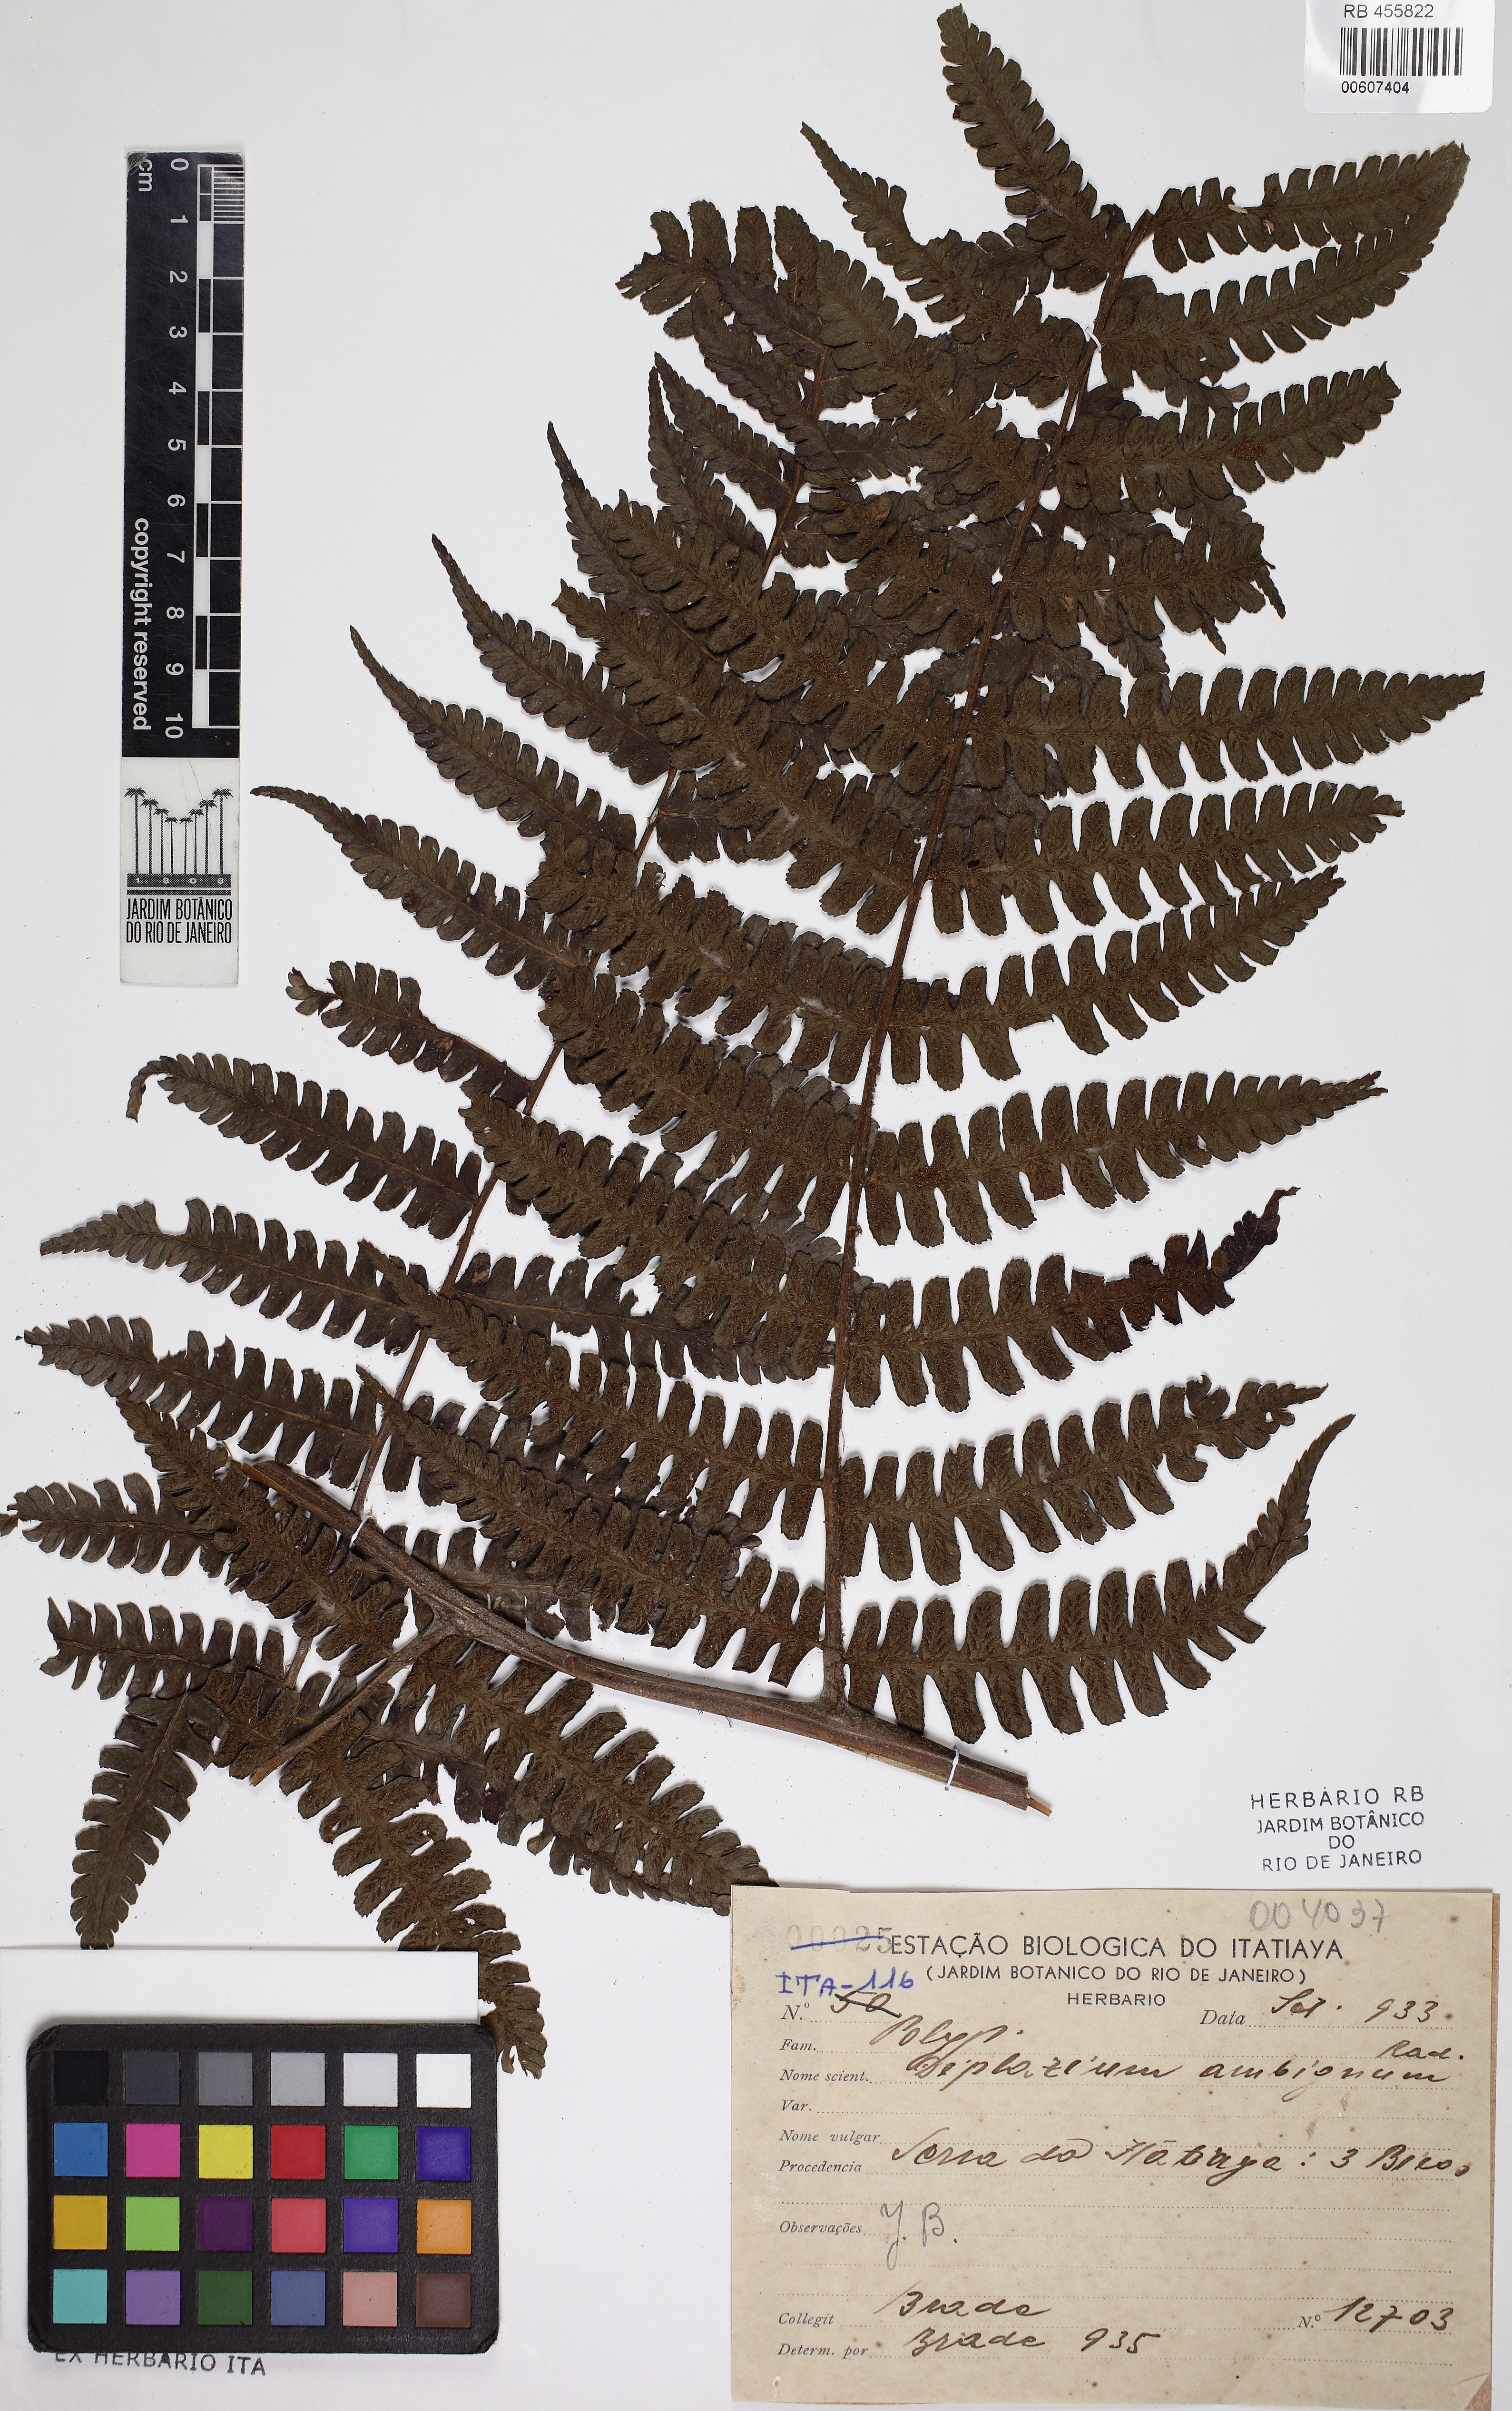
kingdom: Plantae
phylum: Tracheophyta
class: Polypodiopsida
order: Polypodiales
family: Athyriaceae
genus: Diplazium
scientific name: Diplazium rostratum
